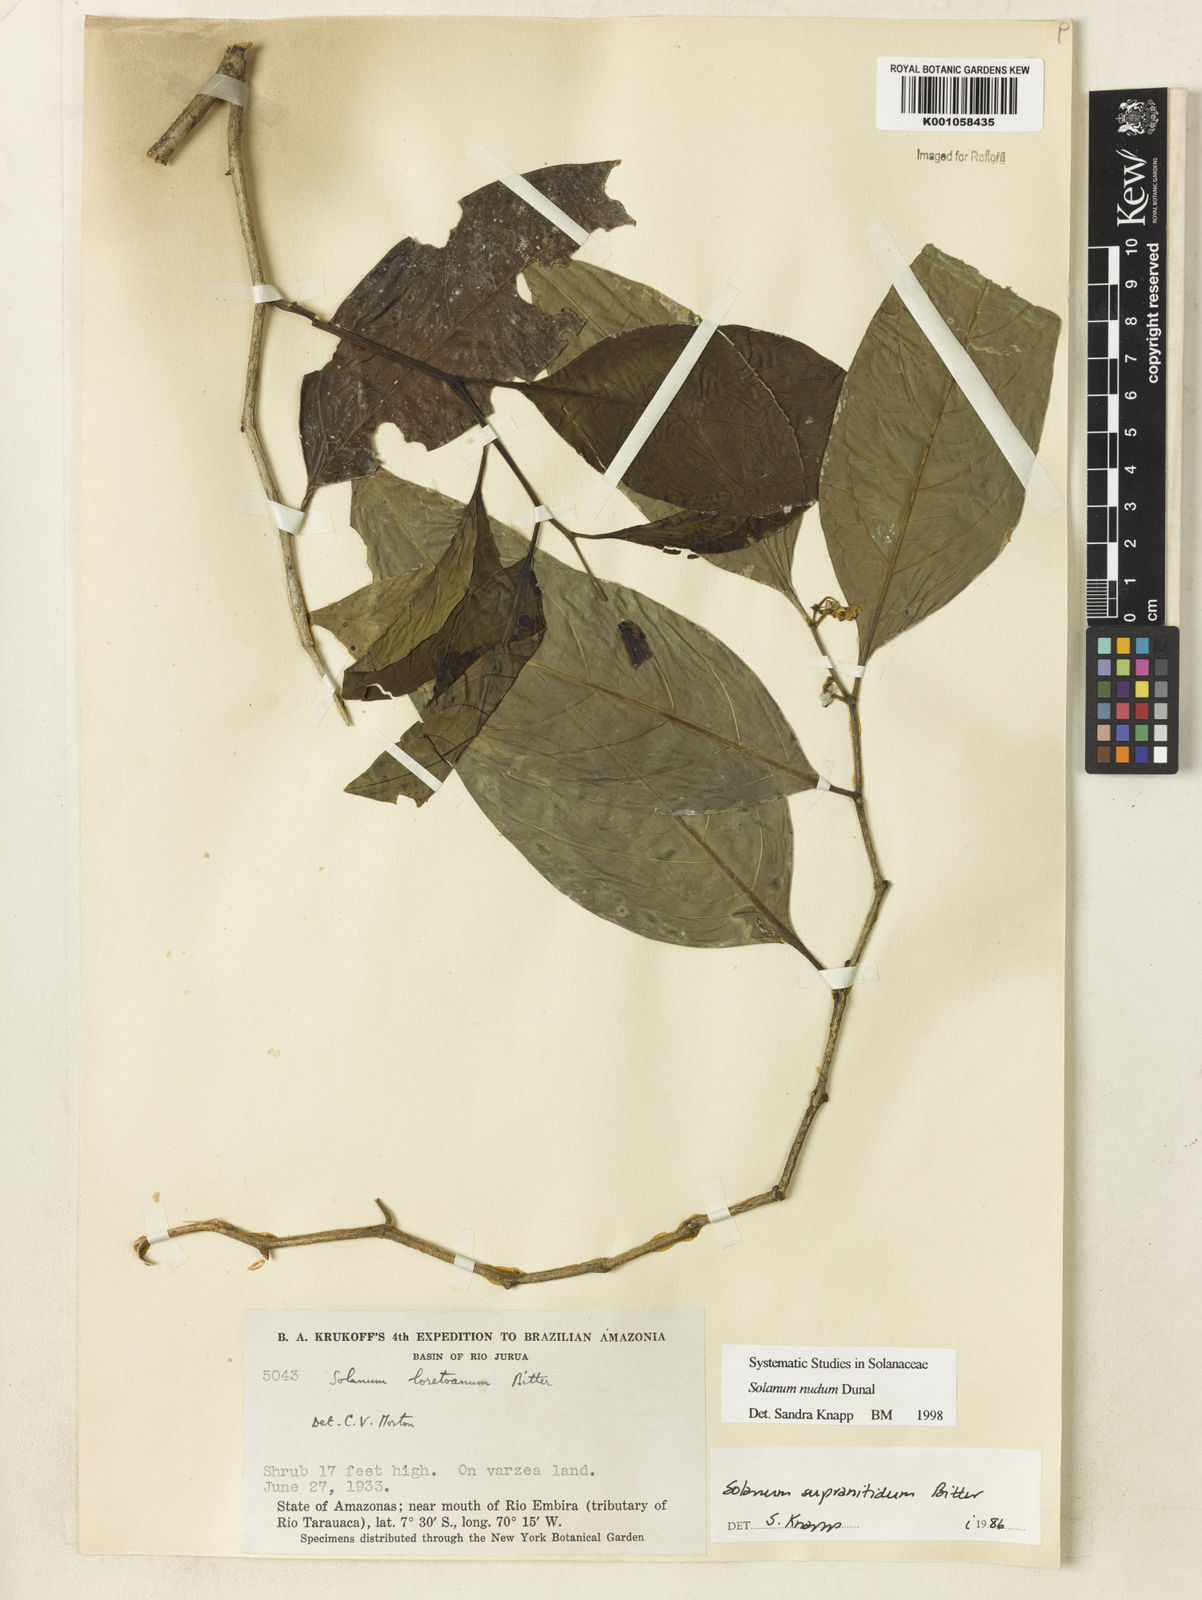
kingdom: Plantae
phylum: Tracheophyta
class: Magnoliopsida
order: Solanales
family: Solanaceae
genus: Solanum
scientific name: Solanum nudum
